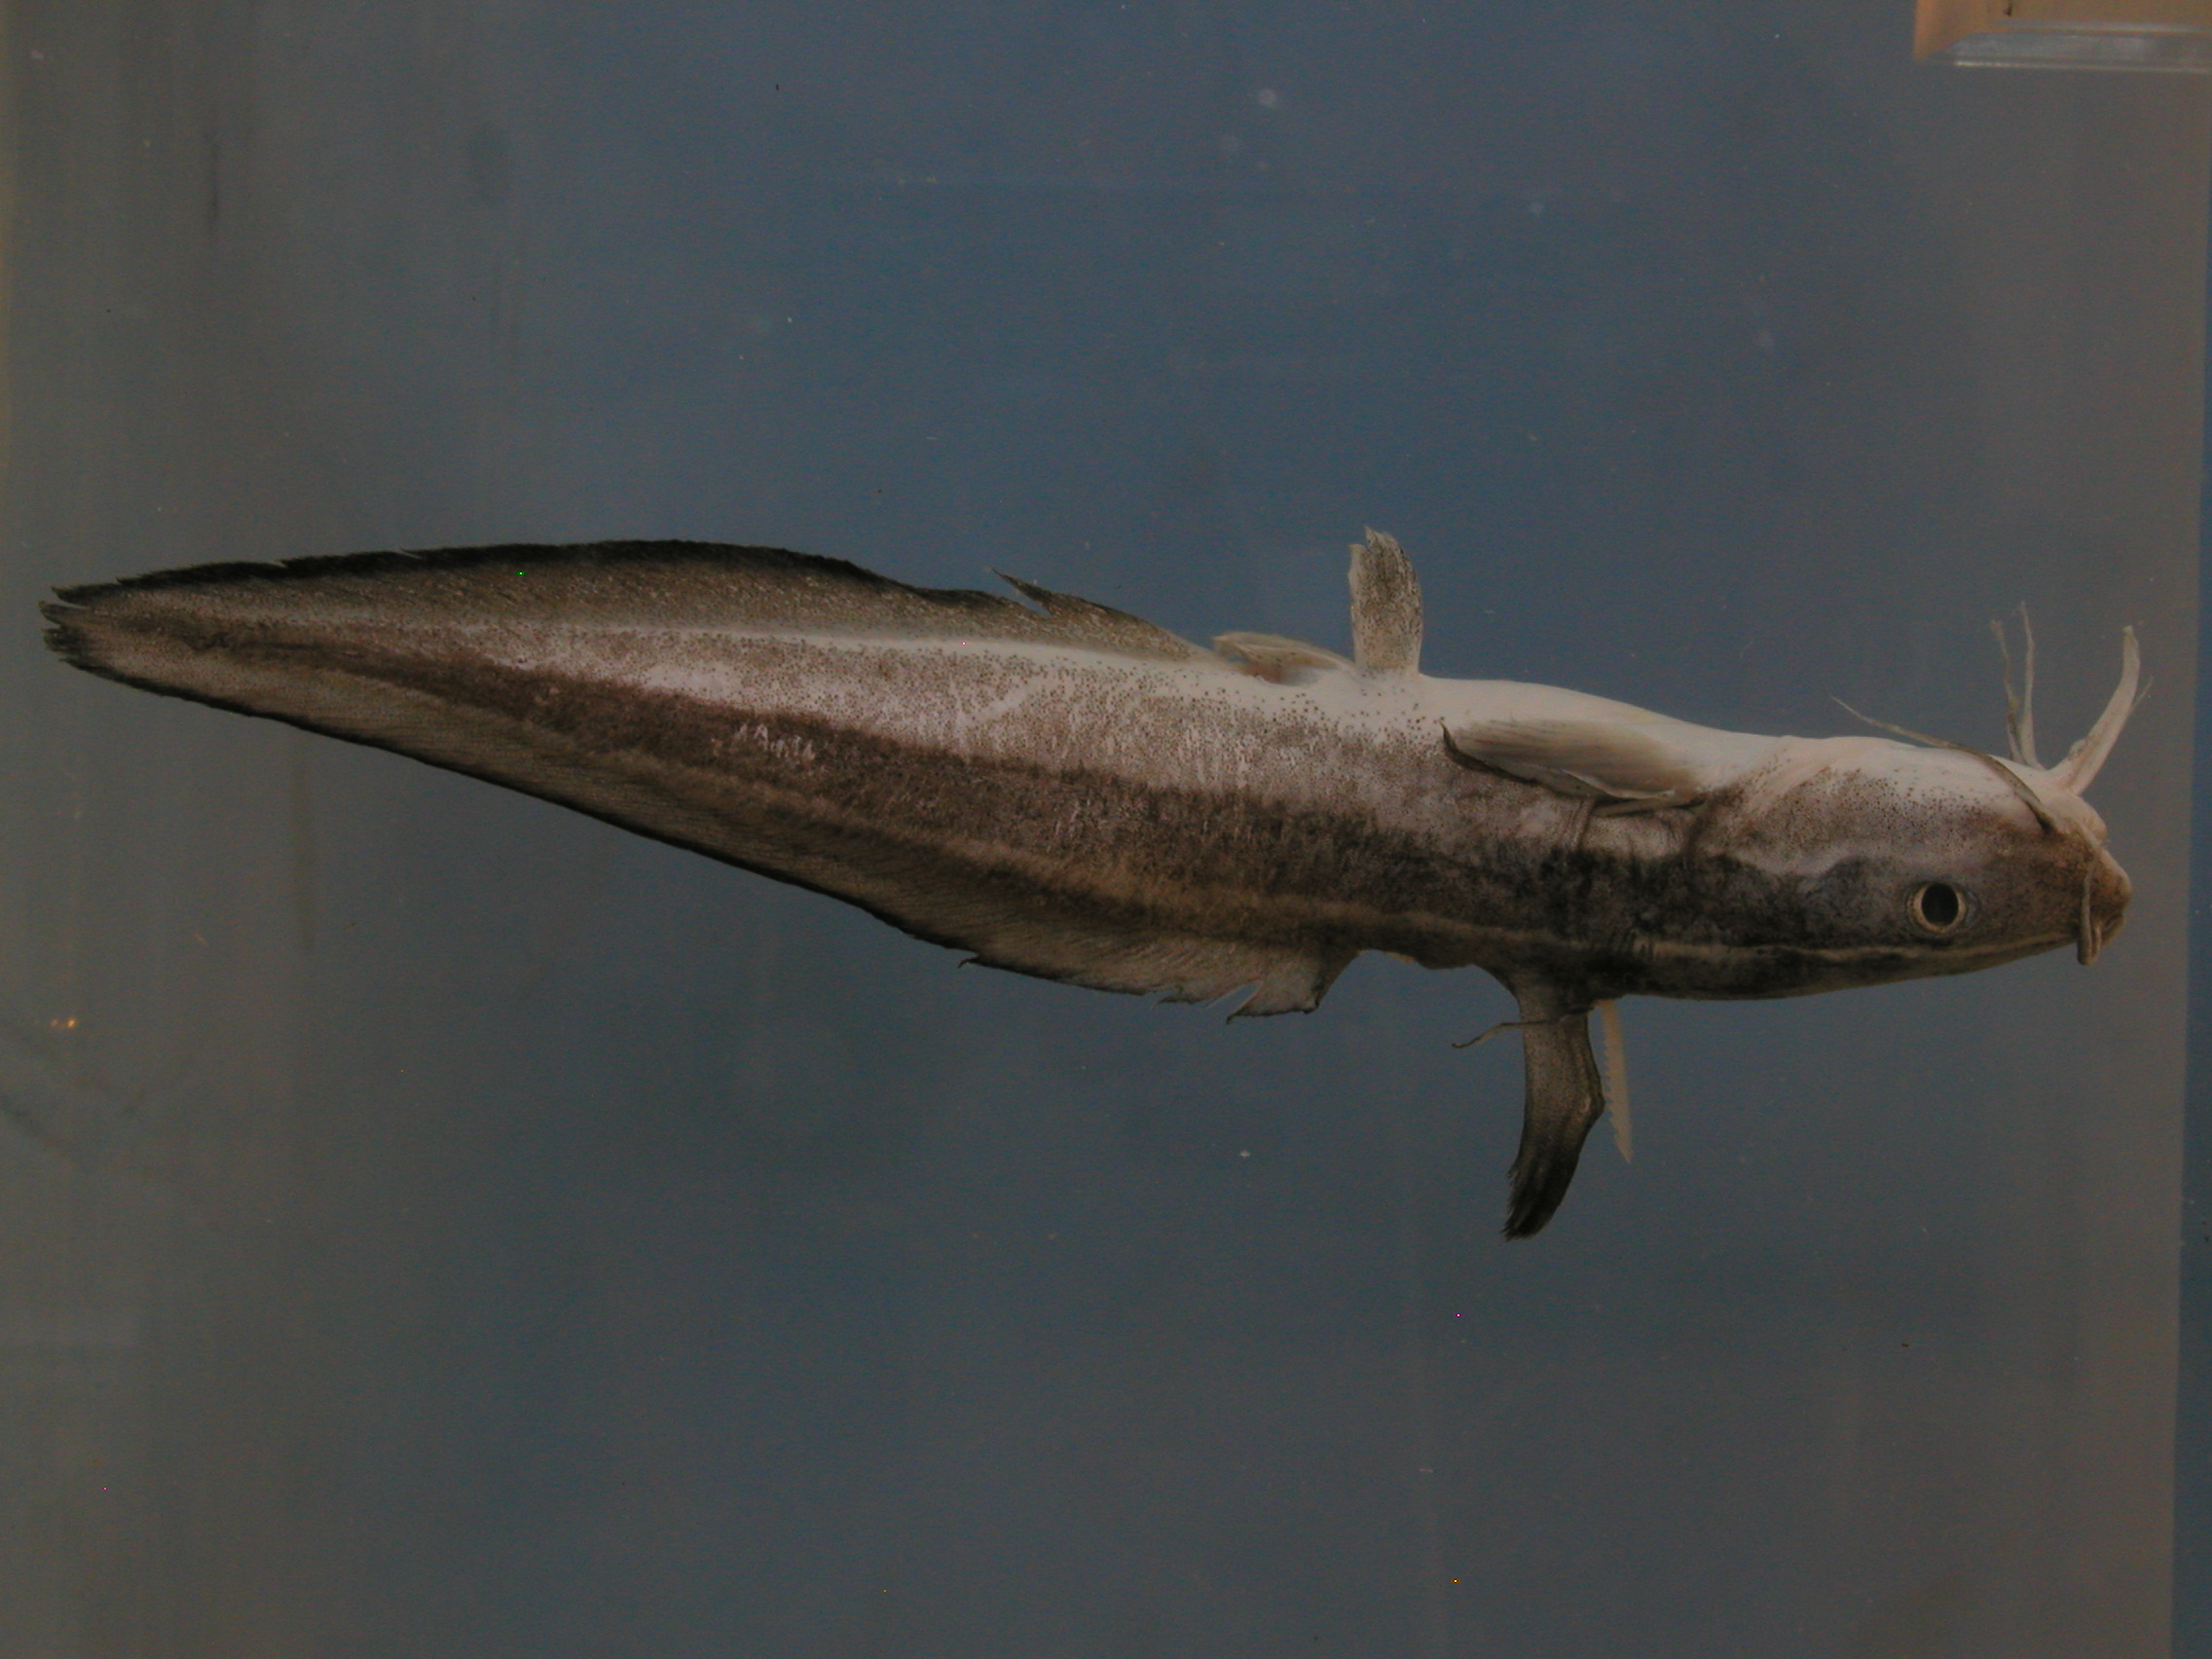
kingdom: Animalia
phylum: Chordata
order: Siluriformes
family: Plotosidae
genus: Plotosus
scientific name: Plotosus lineatus
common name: Striped eel catfish
